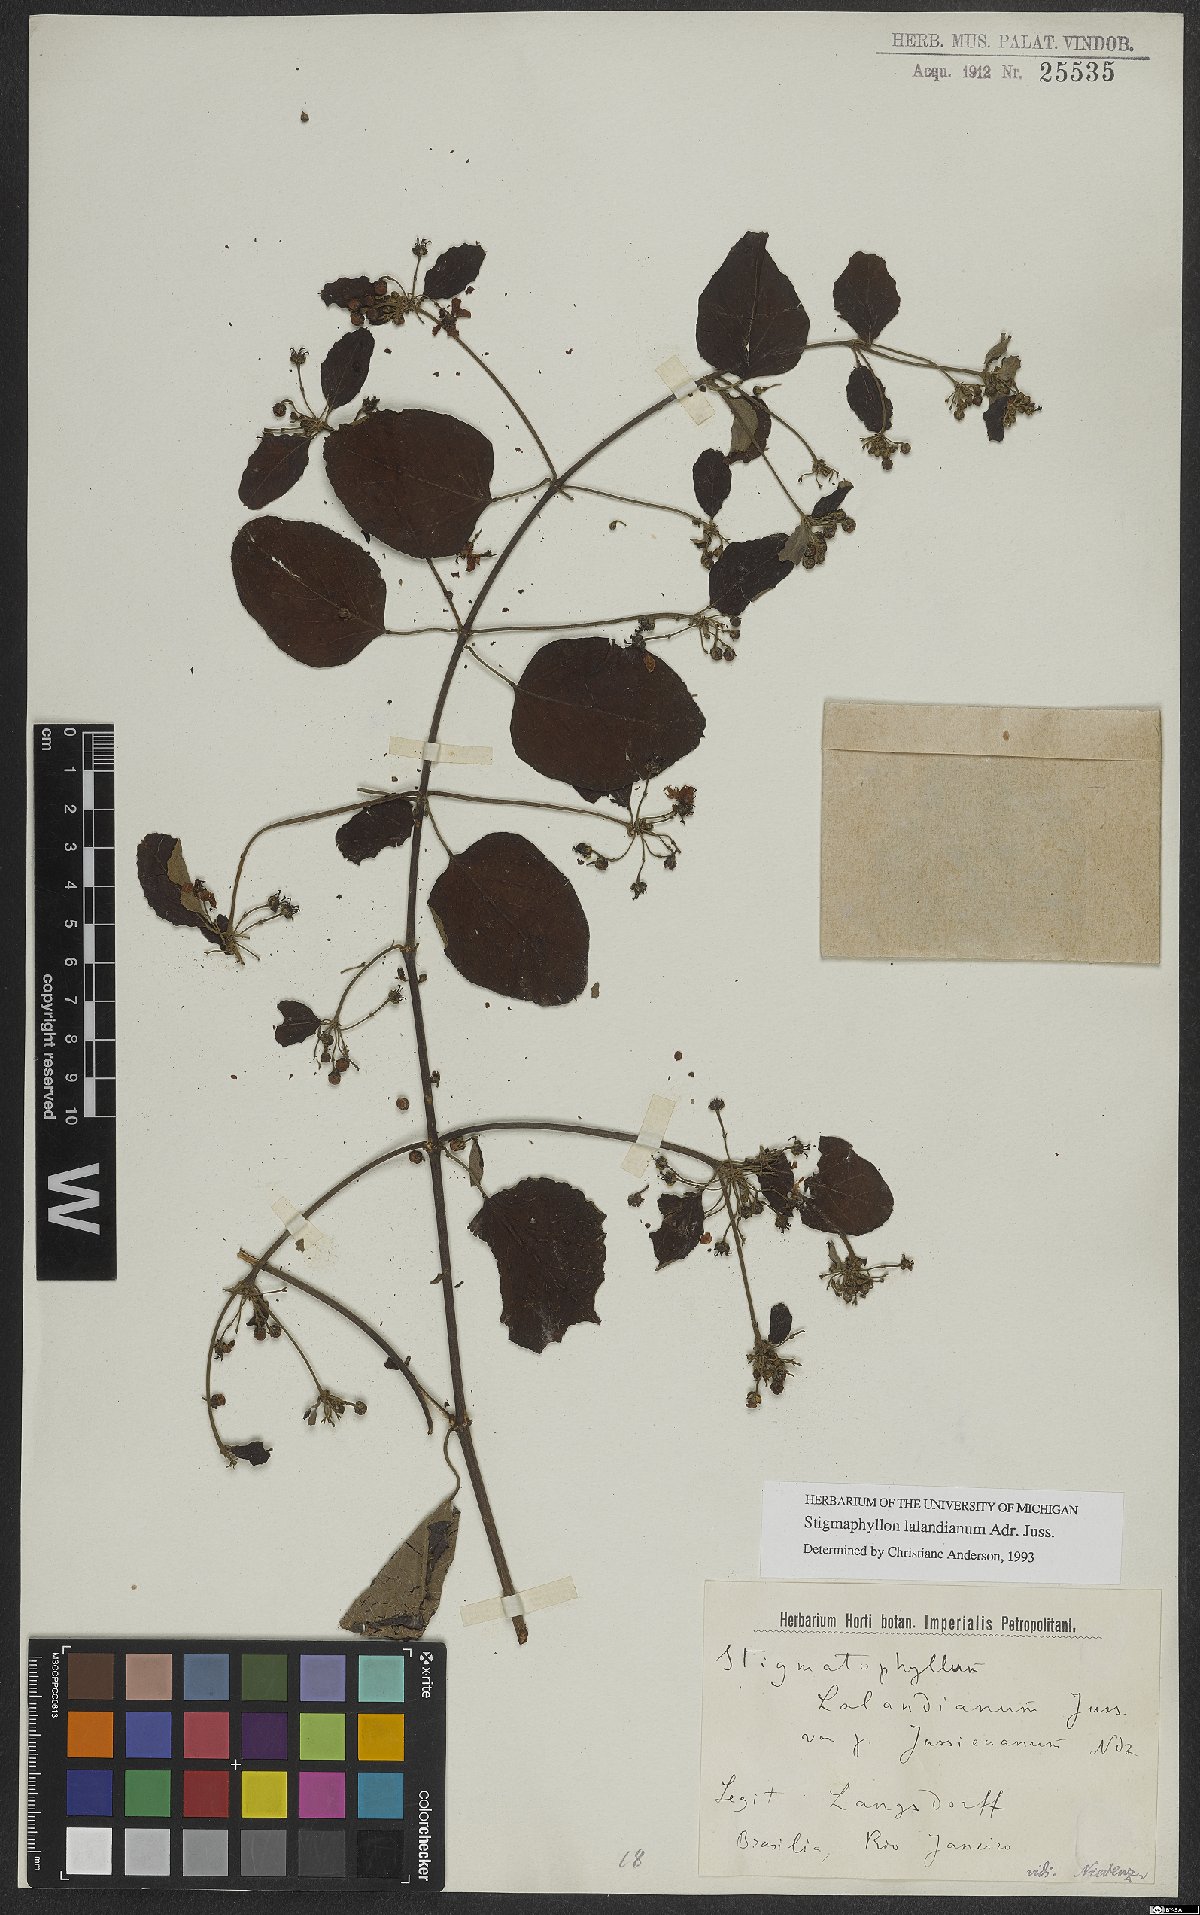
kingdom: Plantae
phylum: Tracheophyta
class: Magnoliopsida
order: Malpighiales
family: Malpighiaceae
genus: Stigmaphyllon
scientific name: Stigmaphyllon lalandianum
